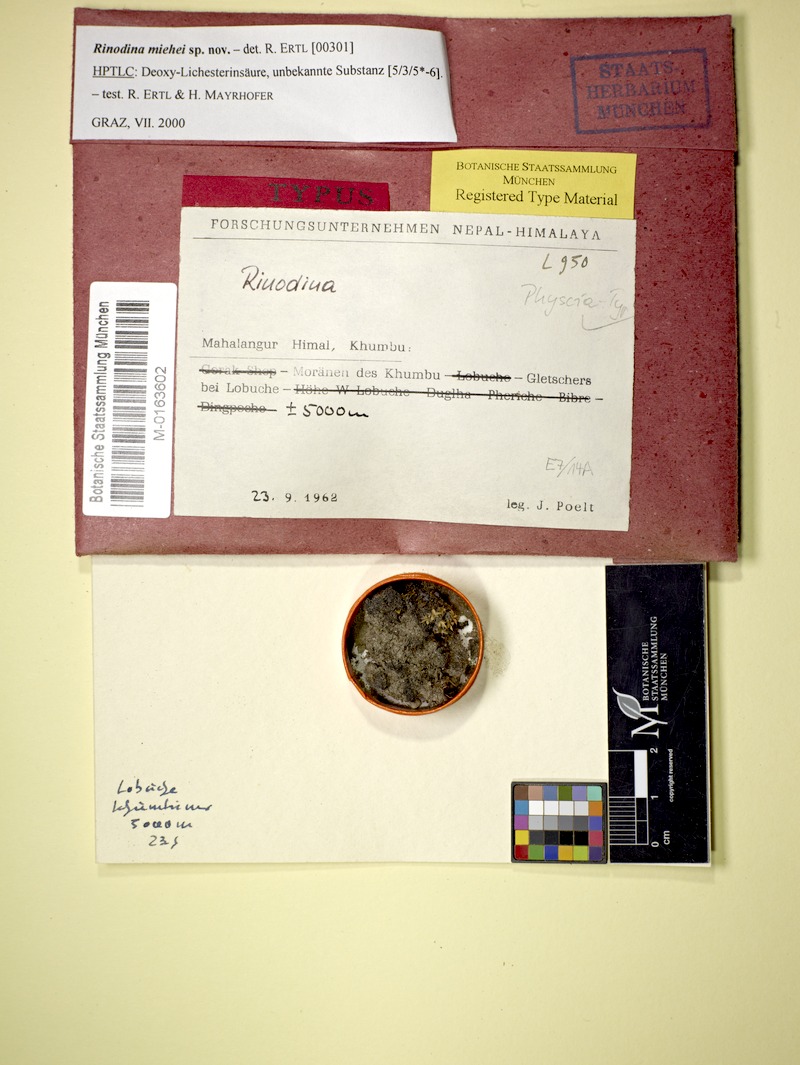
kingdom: Fungi
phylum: Ascomycota
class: Lecanoromycetes
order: Caliciales
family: Physciaceae
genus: Rinodina
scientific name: Rinodina
